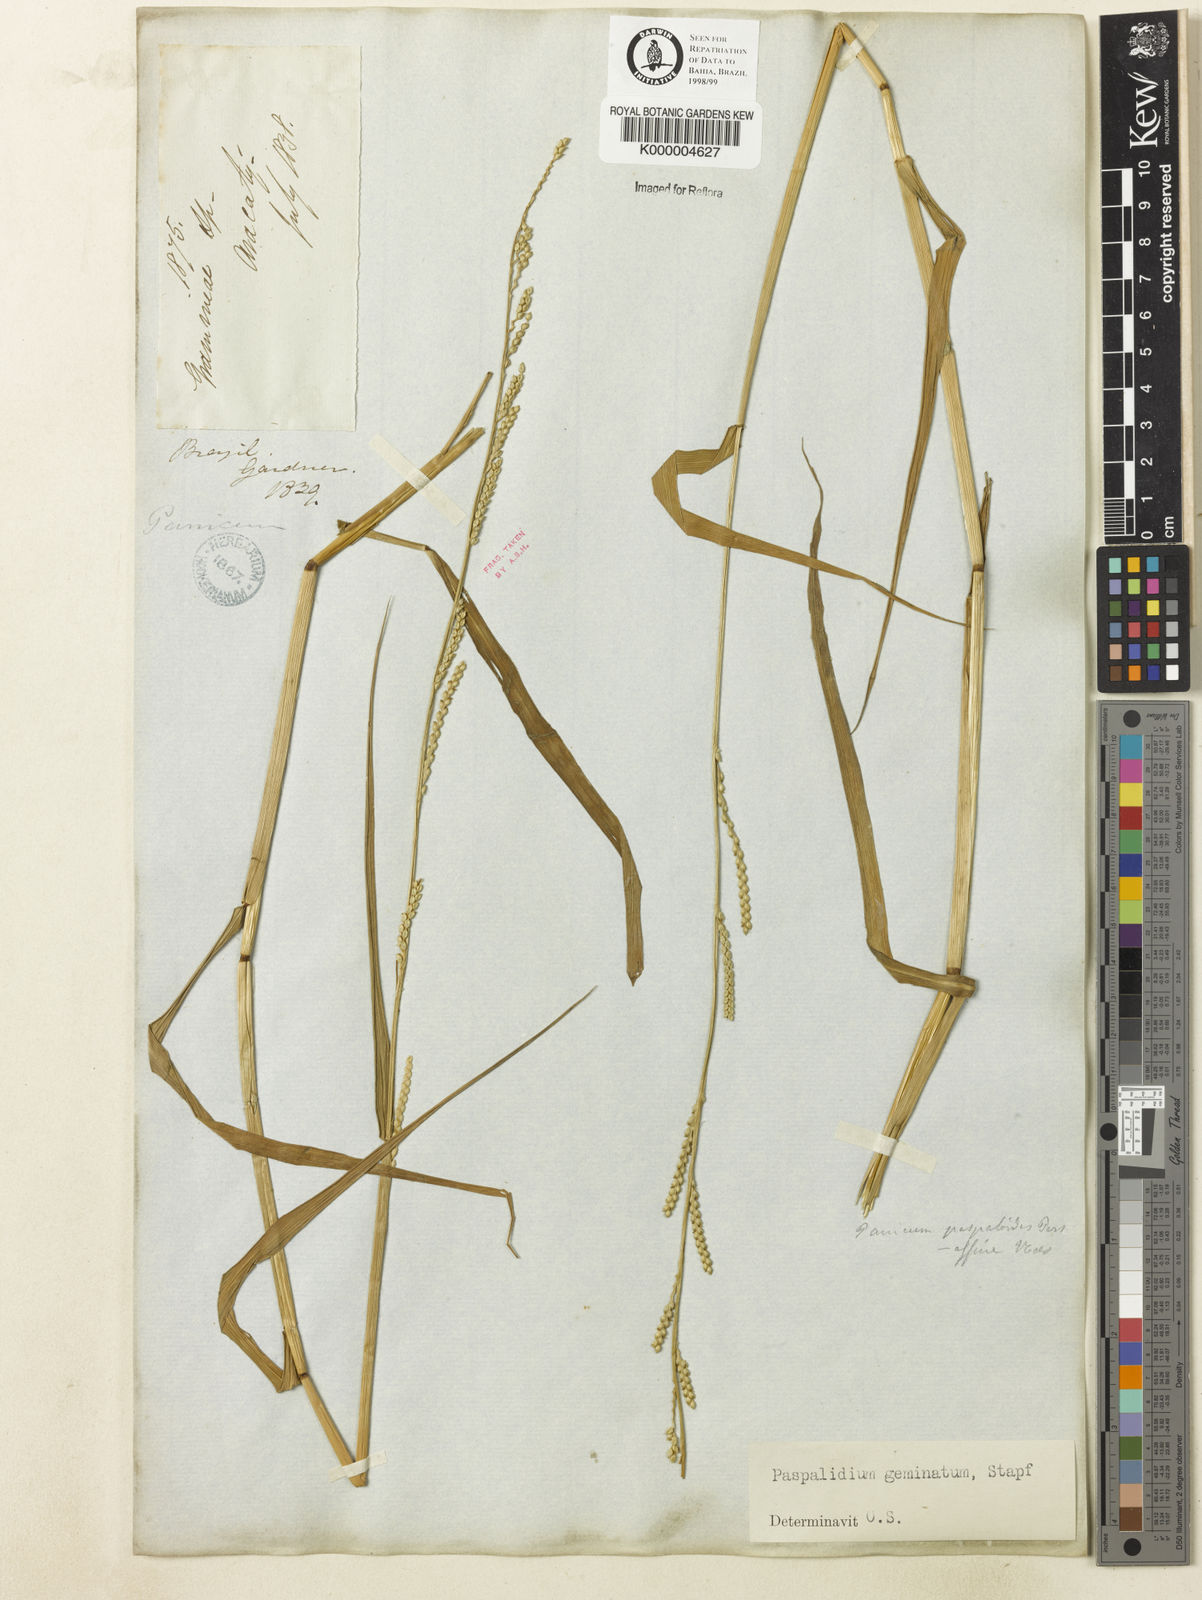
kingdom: Plantae
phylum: Tracheophyta
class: Liliopsida
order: Poales
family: Poaceae
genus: Setaria
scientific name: Setaria geminata
